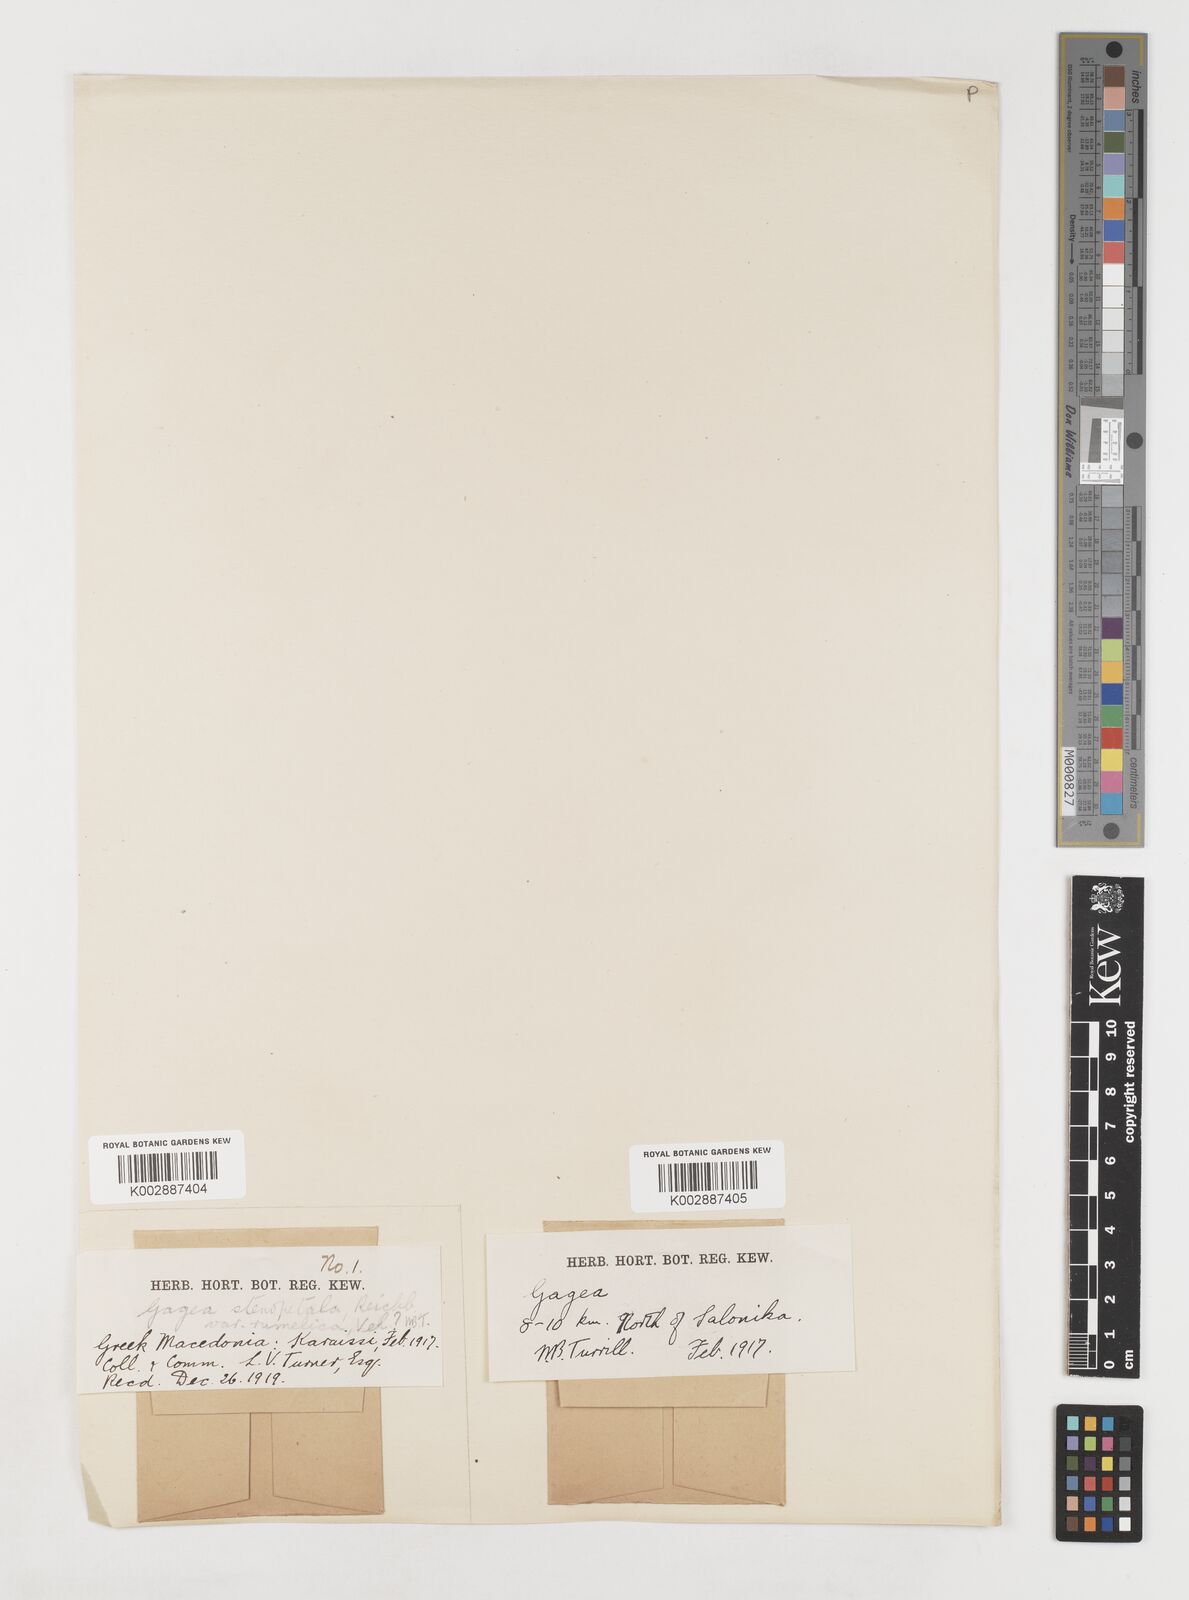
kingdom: Plantae
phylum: Tracheophyta
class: Liliopsida
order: Liliales
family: Liliaceae
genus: Gagea
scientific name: Gagea pratensis
